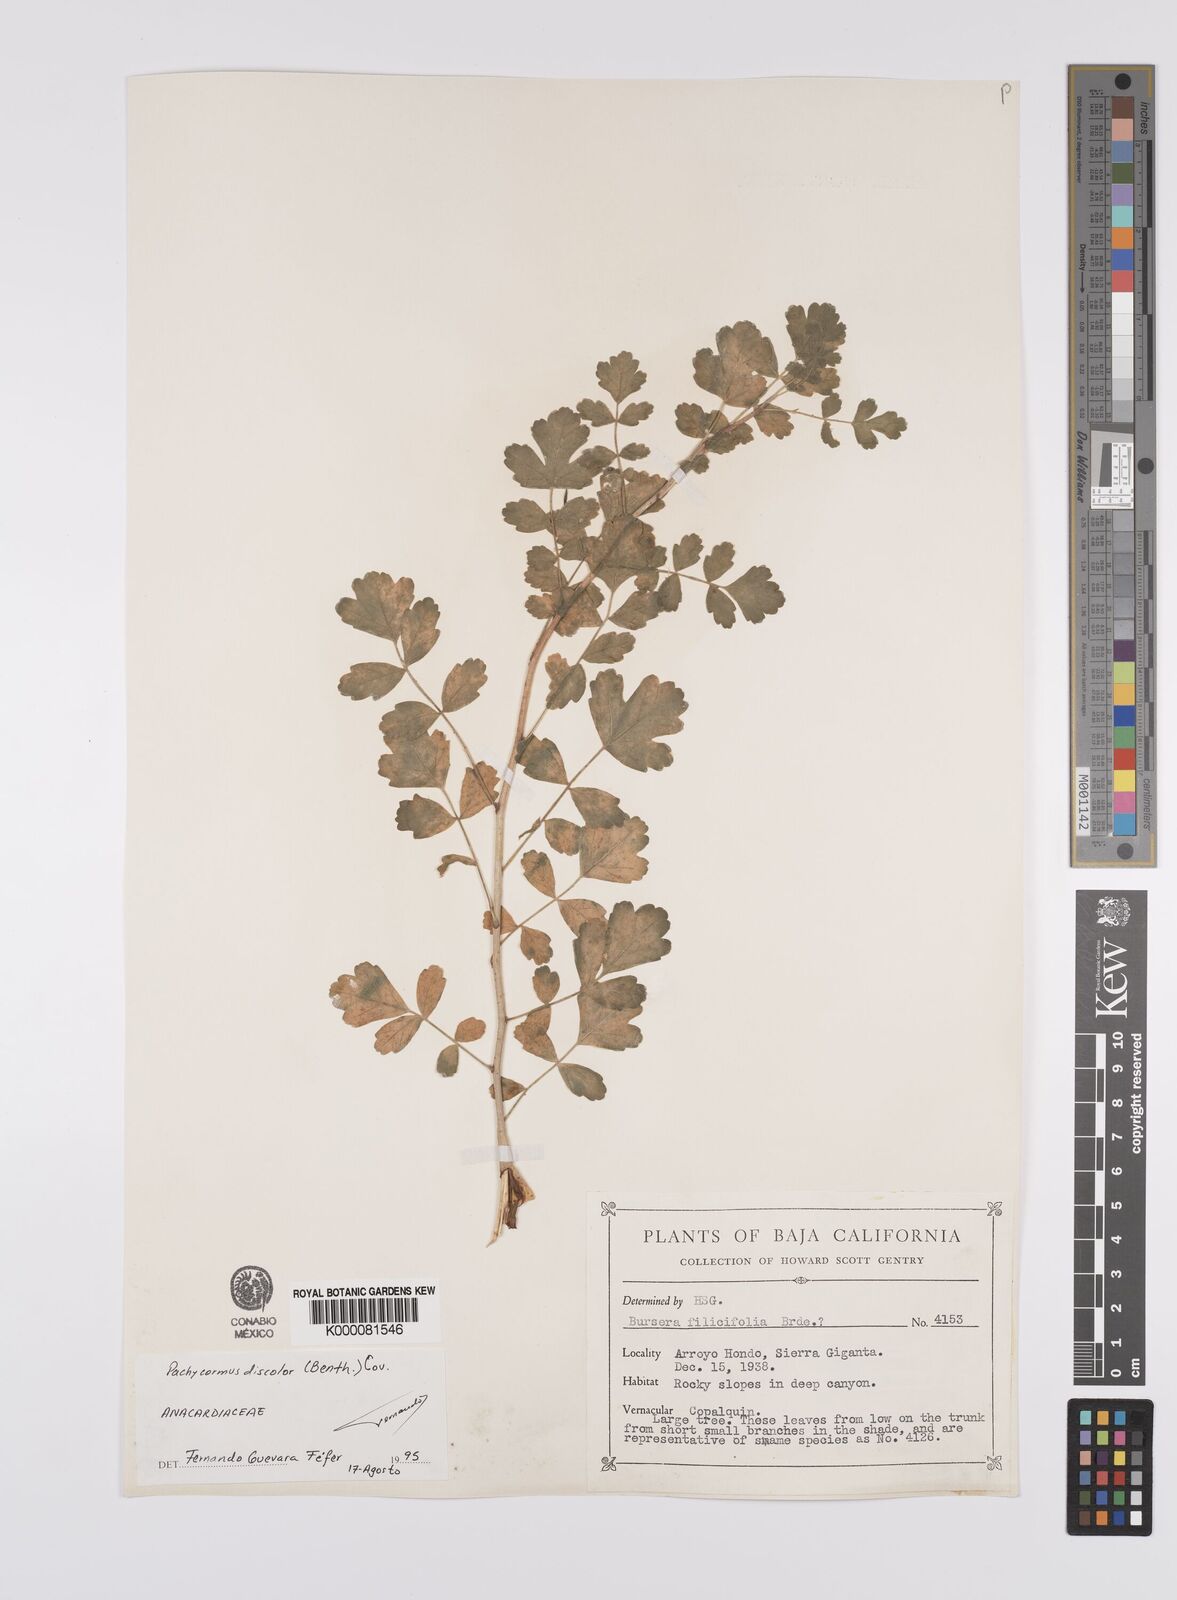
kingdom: Plantae
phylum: Tracheophyta
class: Magnoliopsida
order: Sapindales
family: Anacardiaceae
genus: Pachycormus
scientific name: Pachycormus
